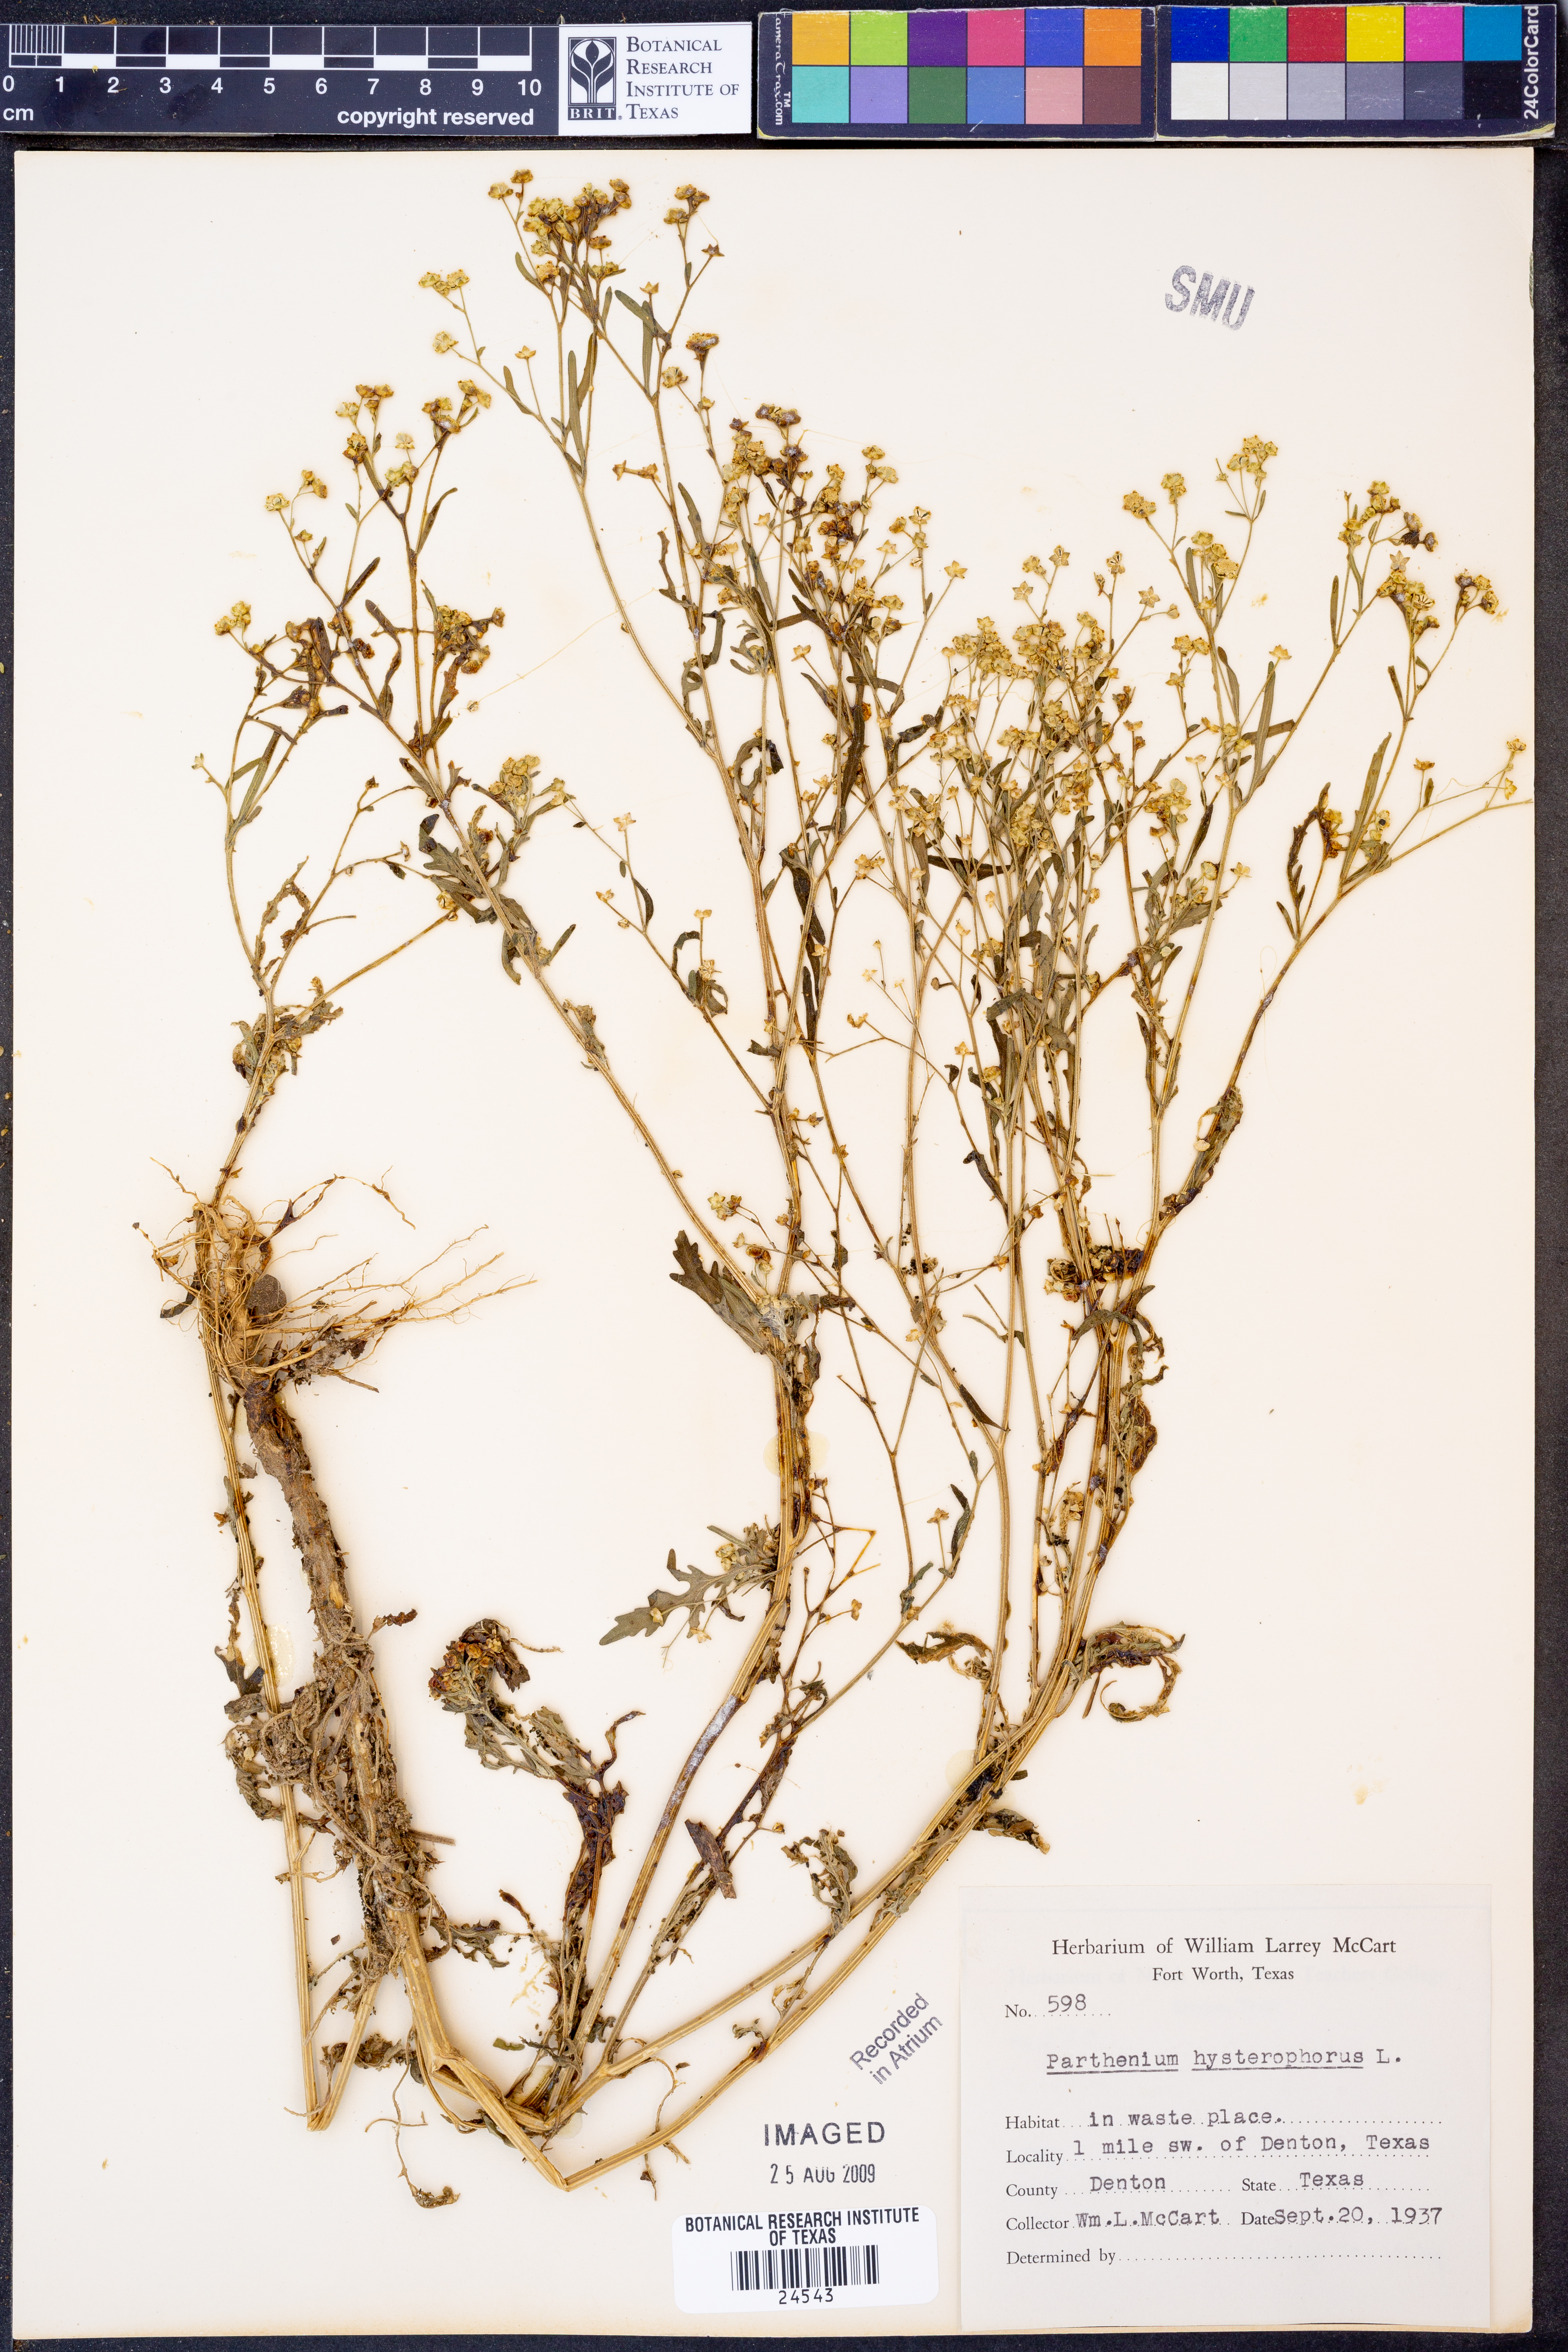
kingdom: Plantae
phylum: Tracheophyta
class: Magnoliopsida
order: Asterales
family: Asteraceae
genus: Parthenium
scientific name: Parthenium hysterophorus
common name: Santa maria feverfew
